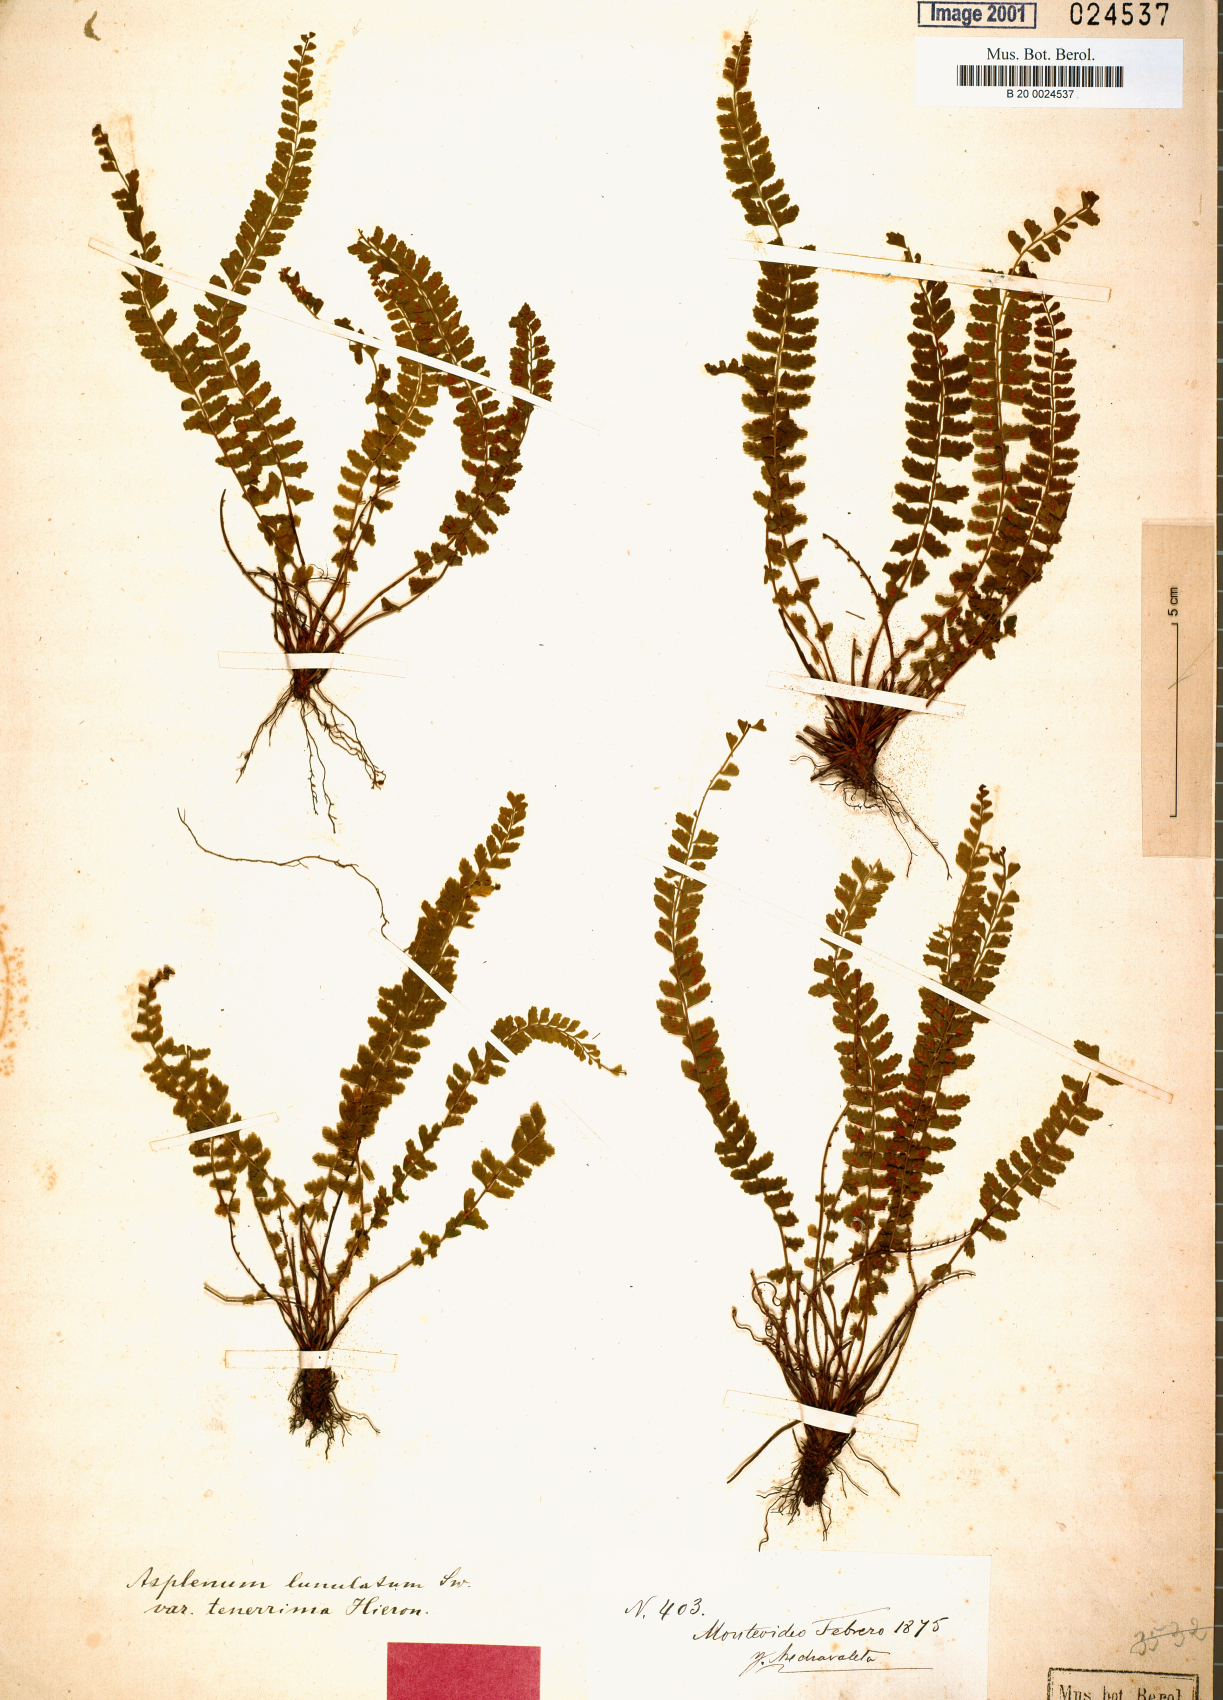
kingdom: Plantae
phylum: Tracheophyta
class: Polypodiopsida
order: Polypodiales
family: Aspleniaceae
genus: Asplenium
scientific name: Asplenium sellowianum
